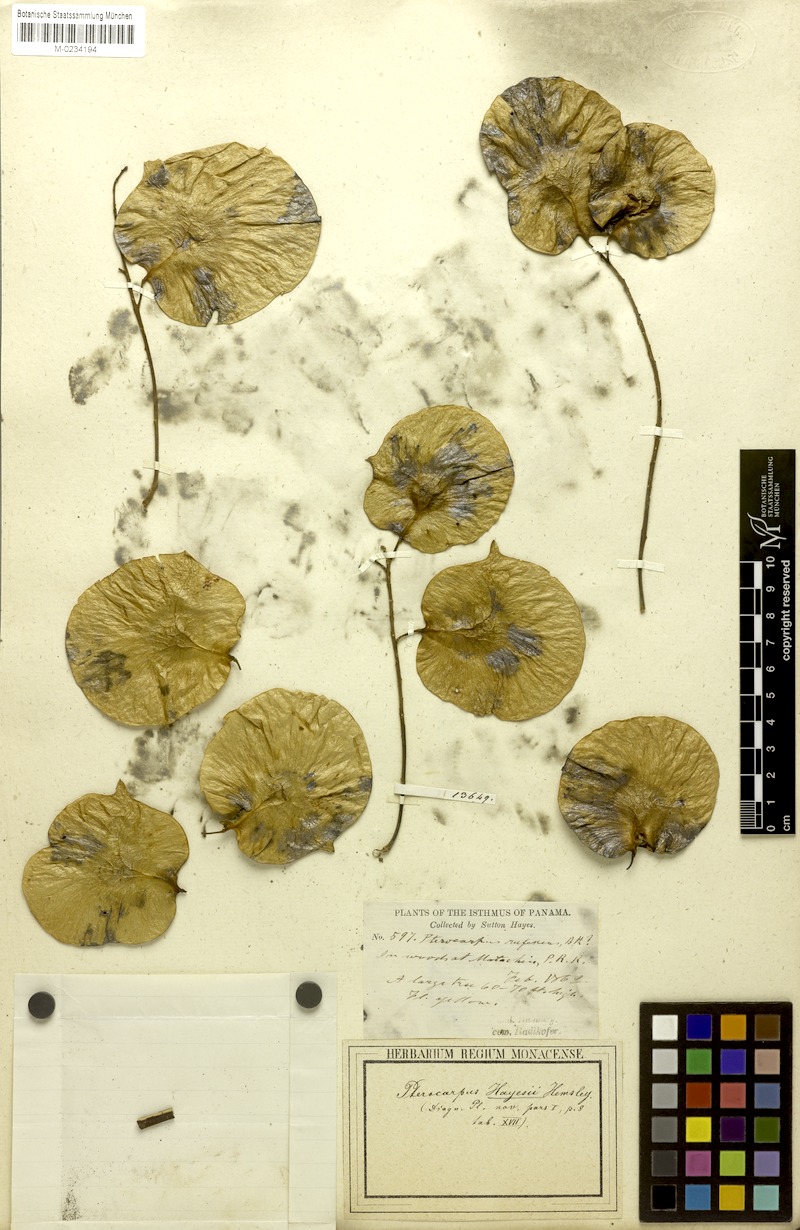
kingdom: Plantae
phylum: Tracheophyta
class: Magnoliopsida
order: Fabales
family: Fabaceae
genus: Pterocarpus
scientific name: Pterocarpus rohrii
